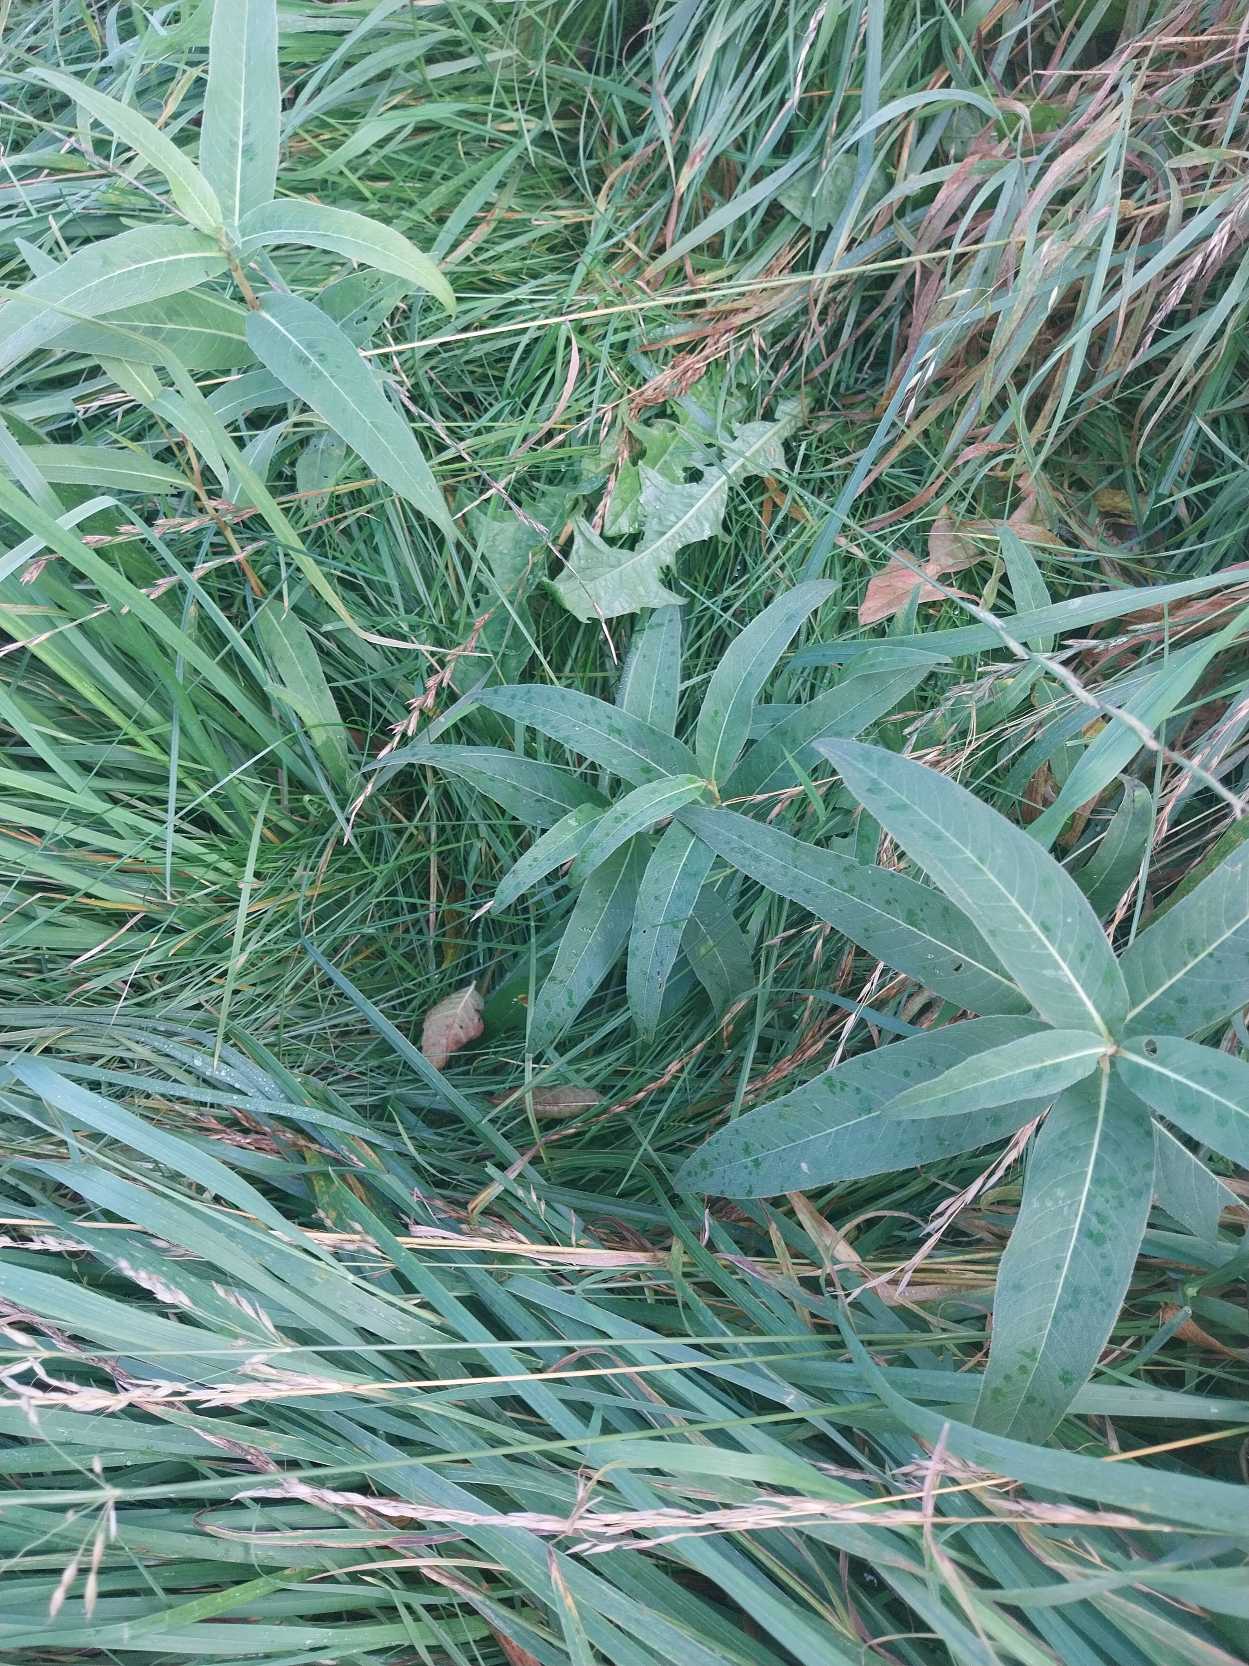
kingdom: Plantae
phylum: Tracheophyta
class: Magnoliopsida
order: Caryophyllales
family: Polygonaceae
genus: Persicaria
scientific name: Persicaria amphibia
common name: Vand-pileurt
